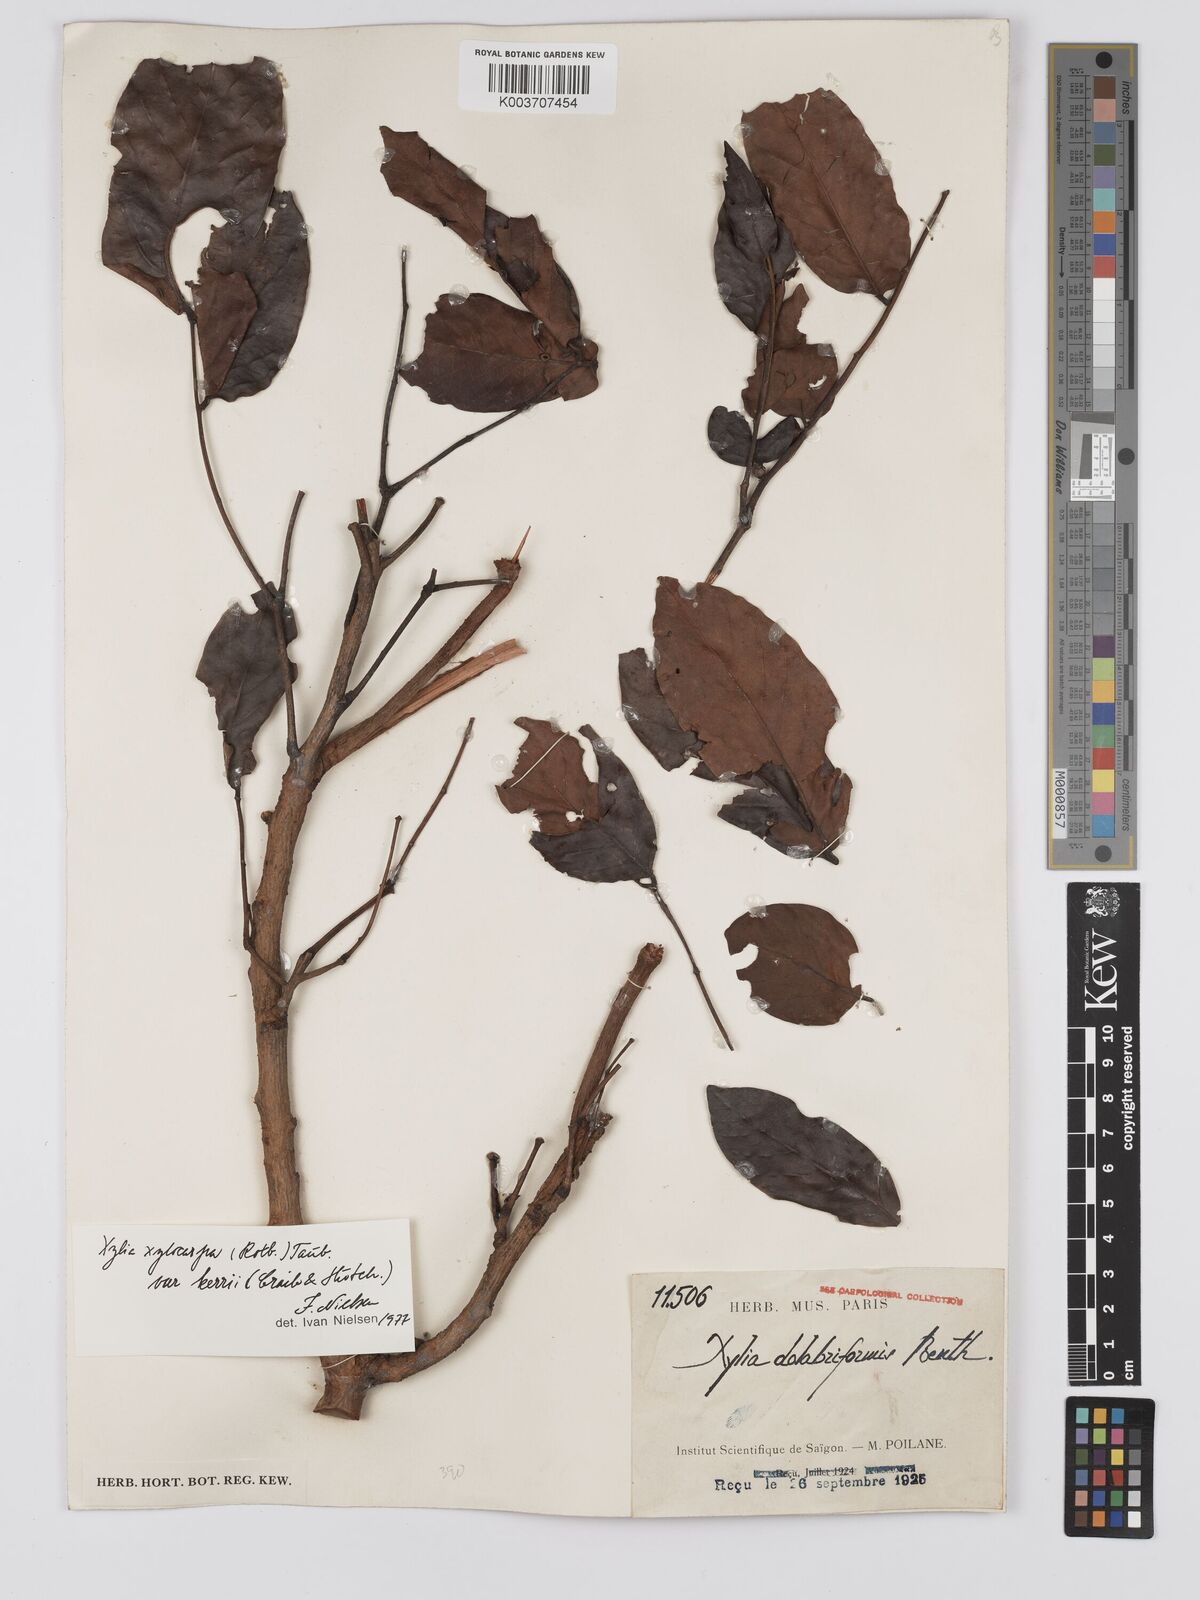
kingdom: Plantae
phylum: Tracheophyta
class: Magnoliopsida
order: Fabales
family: Fabaceae
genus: Xylia
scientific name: Xylia xylocarpa
